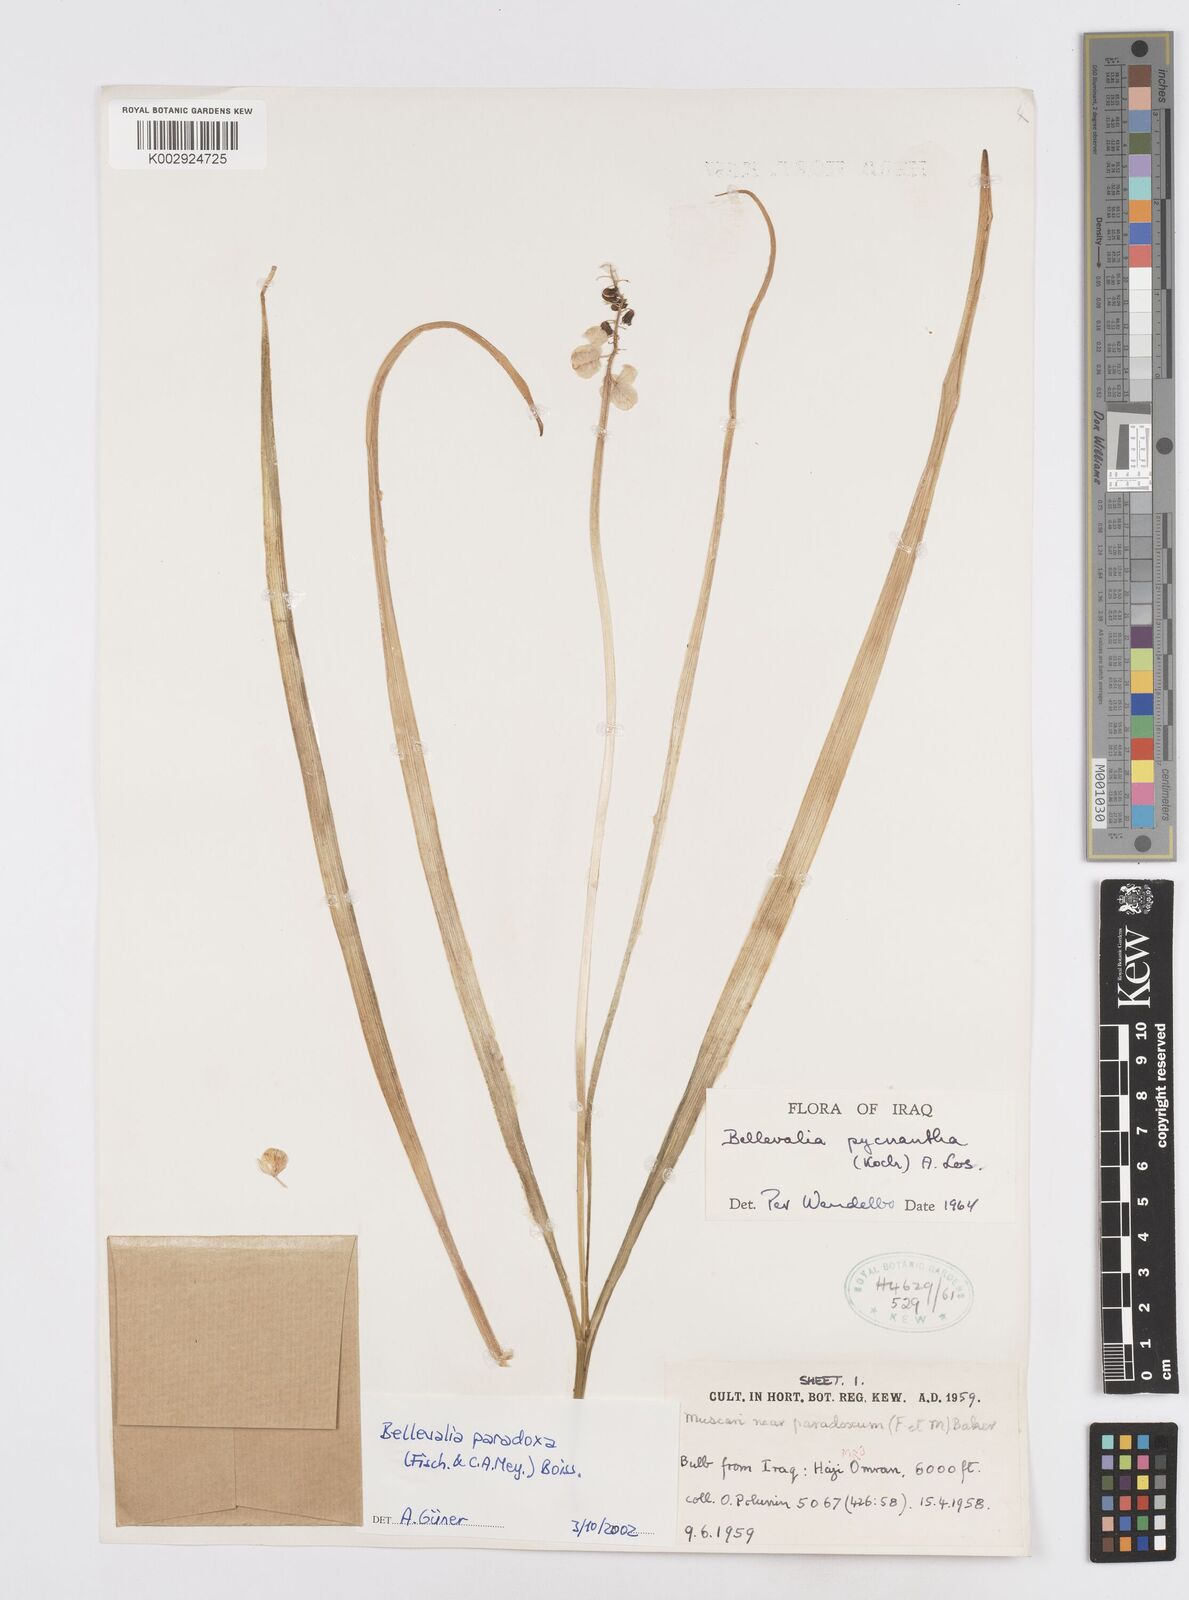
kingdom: Plantae
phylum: Tracheophyta
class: Liliopsida
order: Asparagales
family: Asparagaceae
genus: Bellevalia
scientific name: Bellevalia paradoxa
